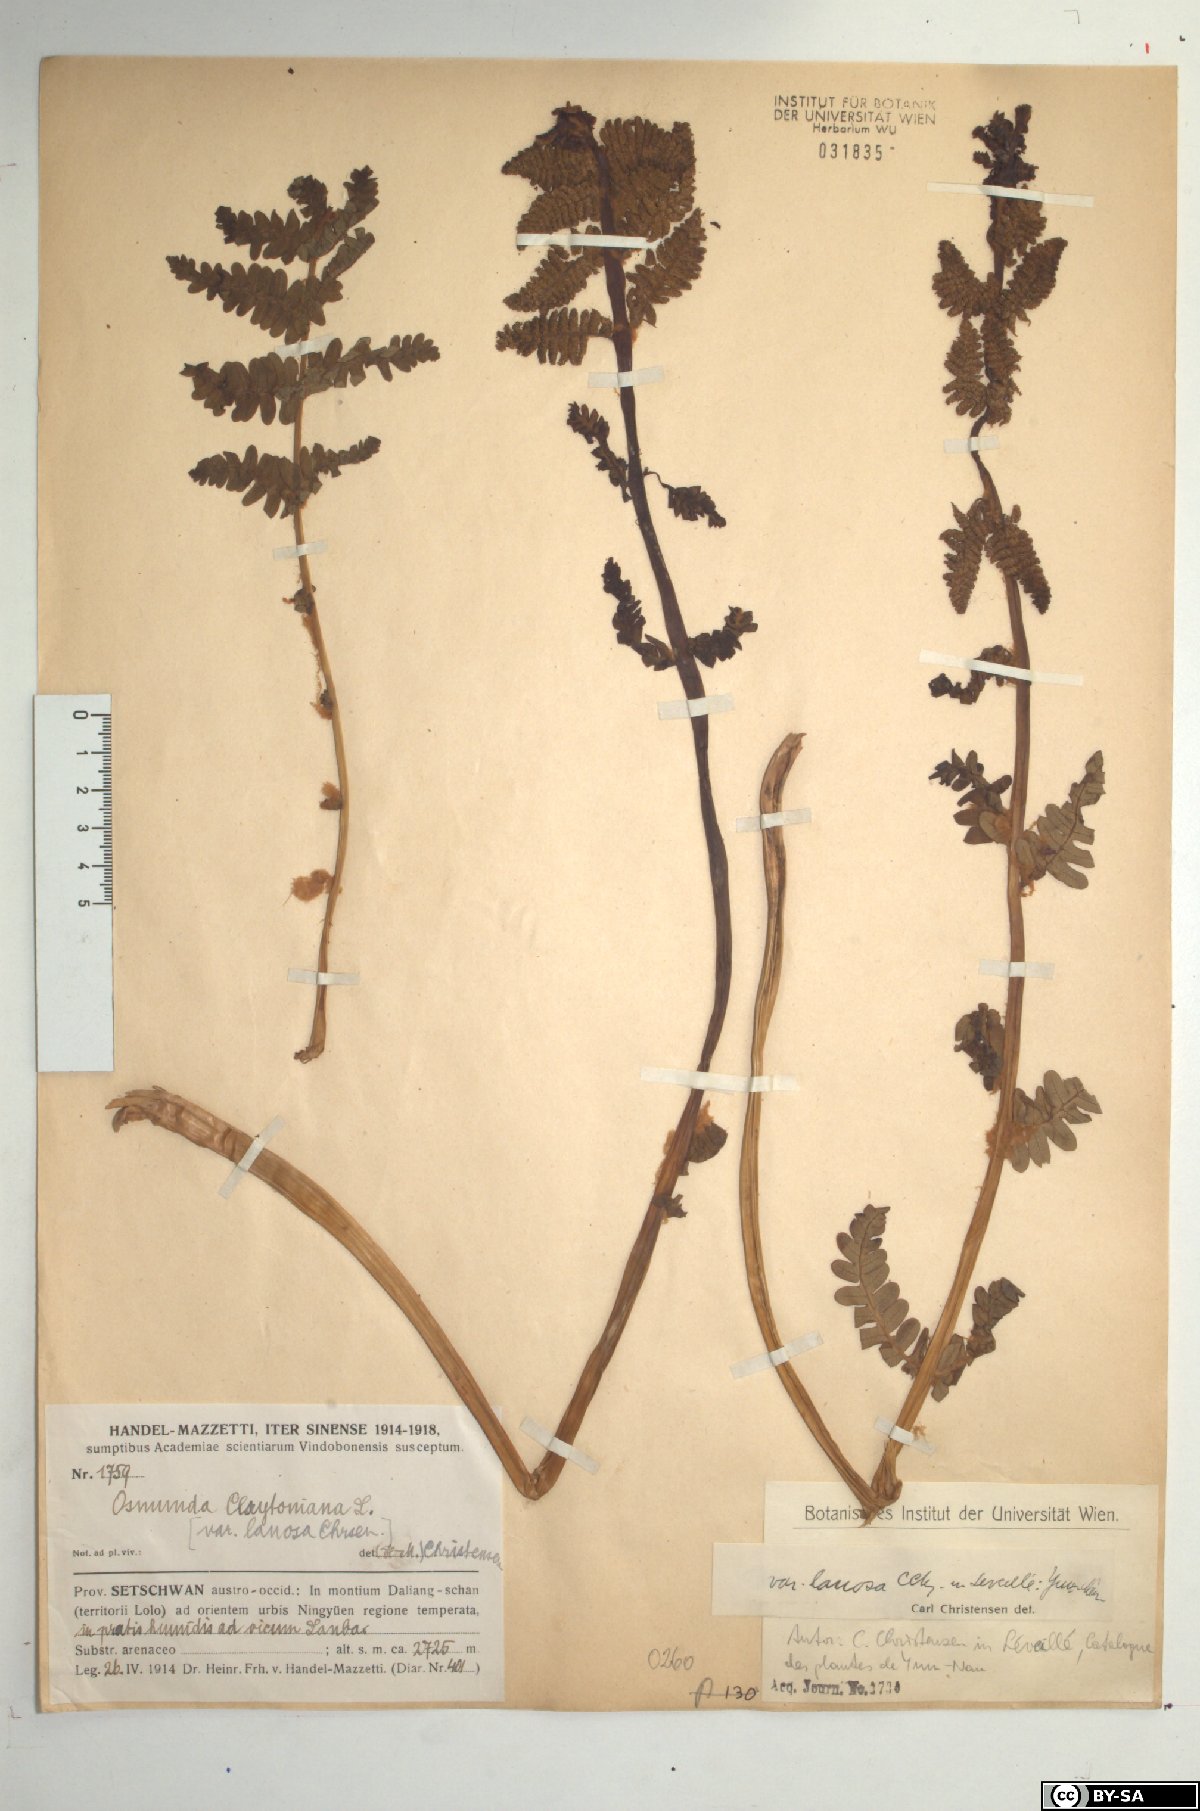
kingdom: Plantae
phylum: Tracheophyta
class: Polypodiopsida
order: Osmundales
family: Osmundaceae
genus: Claytosmunda
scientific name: Claytosmunda claytoniana
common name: Clayton's fern
